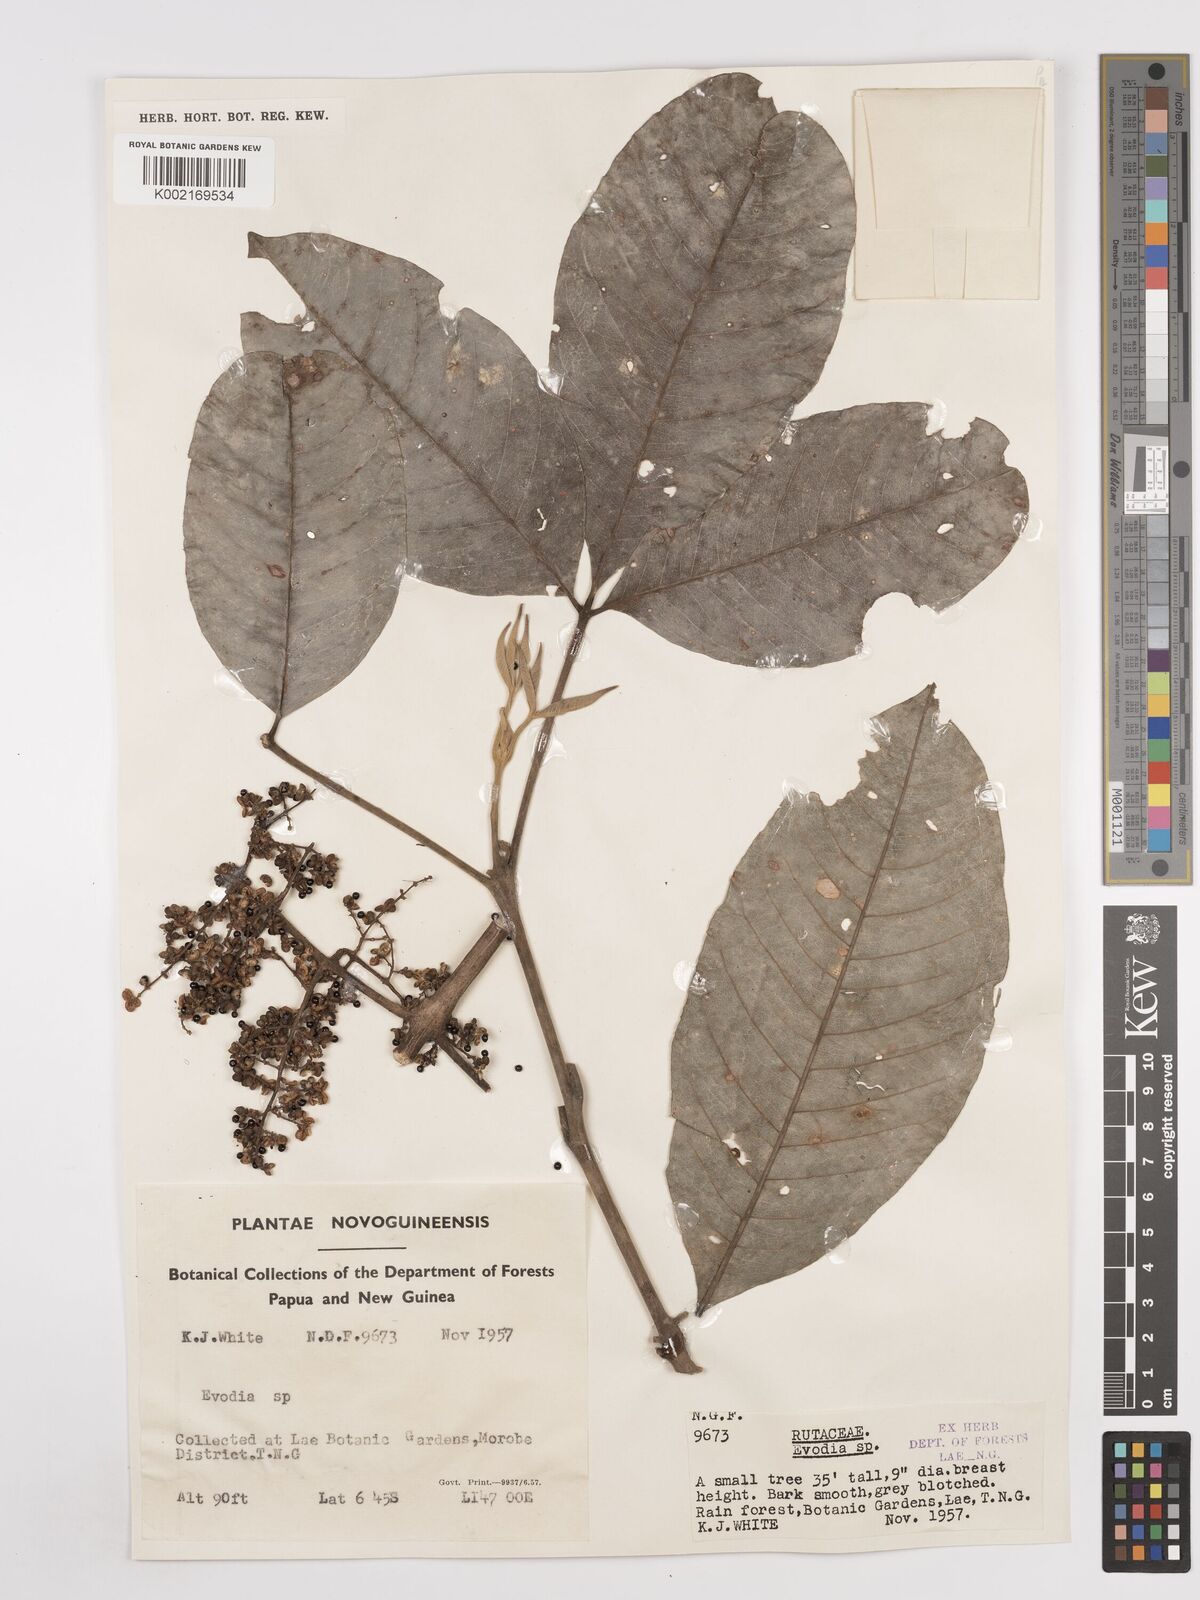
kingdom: Plantae
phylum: Tracheophyta
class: Magnoliopsida
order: Sapindales
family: Rutaceae
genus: Euodia
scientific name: Euodia
